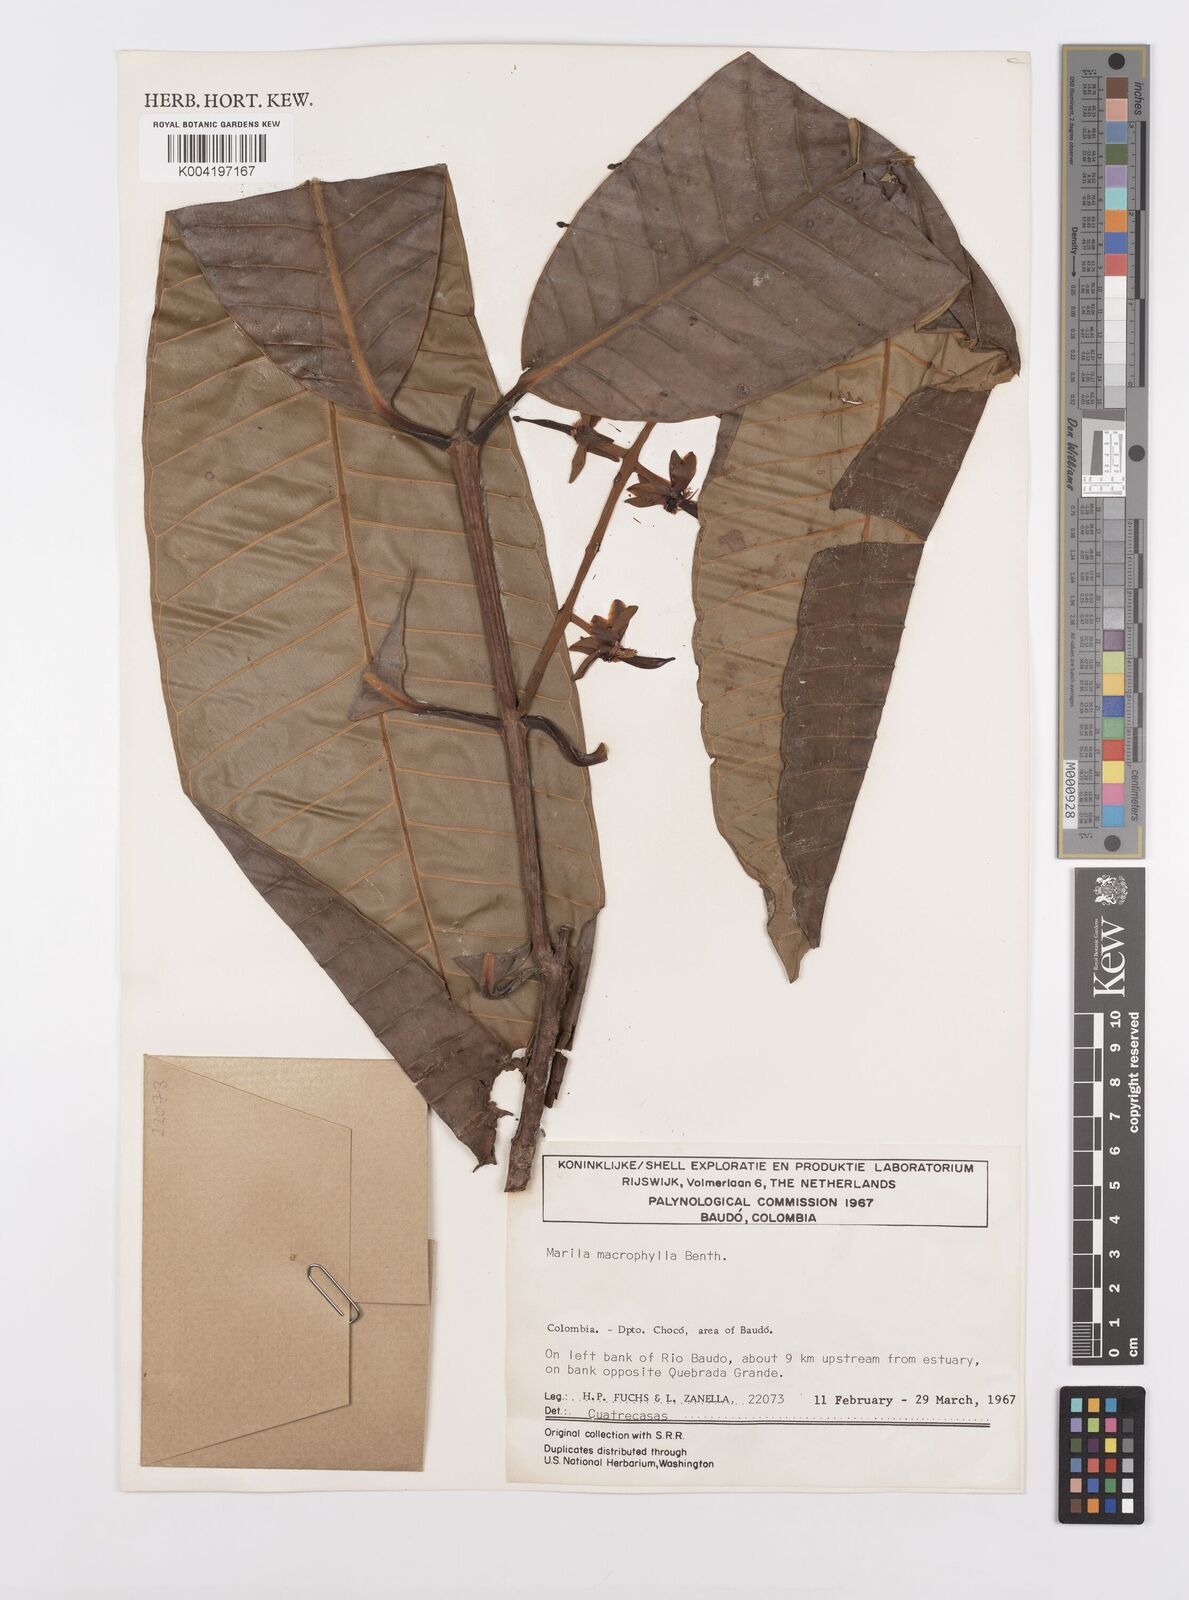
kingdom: Plantae
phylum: Tracheophyta
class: Magnoliopsida
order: Malpighiales
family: Calophyllaceae
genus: Marila
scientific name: Marila macrophylla
